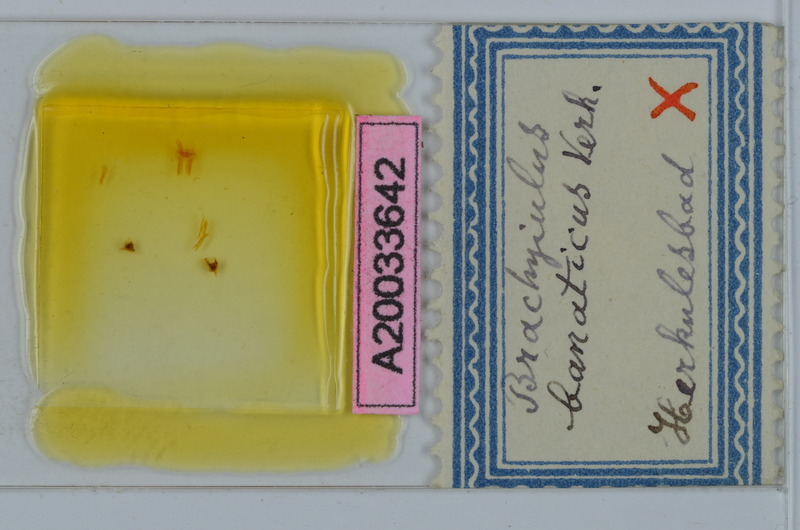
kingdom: Animalia
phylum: Arthropoda
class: Diplopoda
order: Julida
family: Julidae
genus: Megaphyllum
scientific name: Megaphyllum erythronotum
